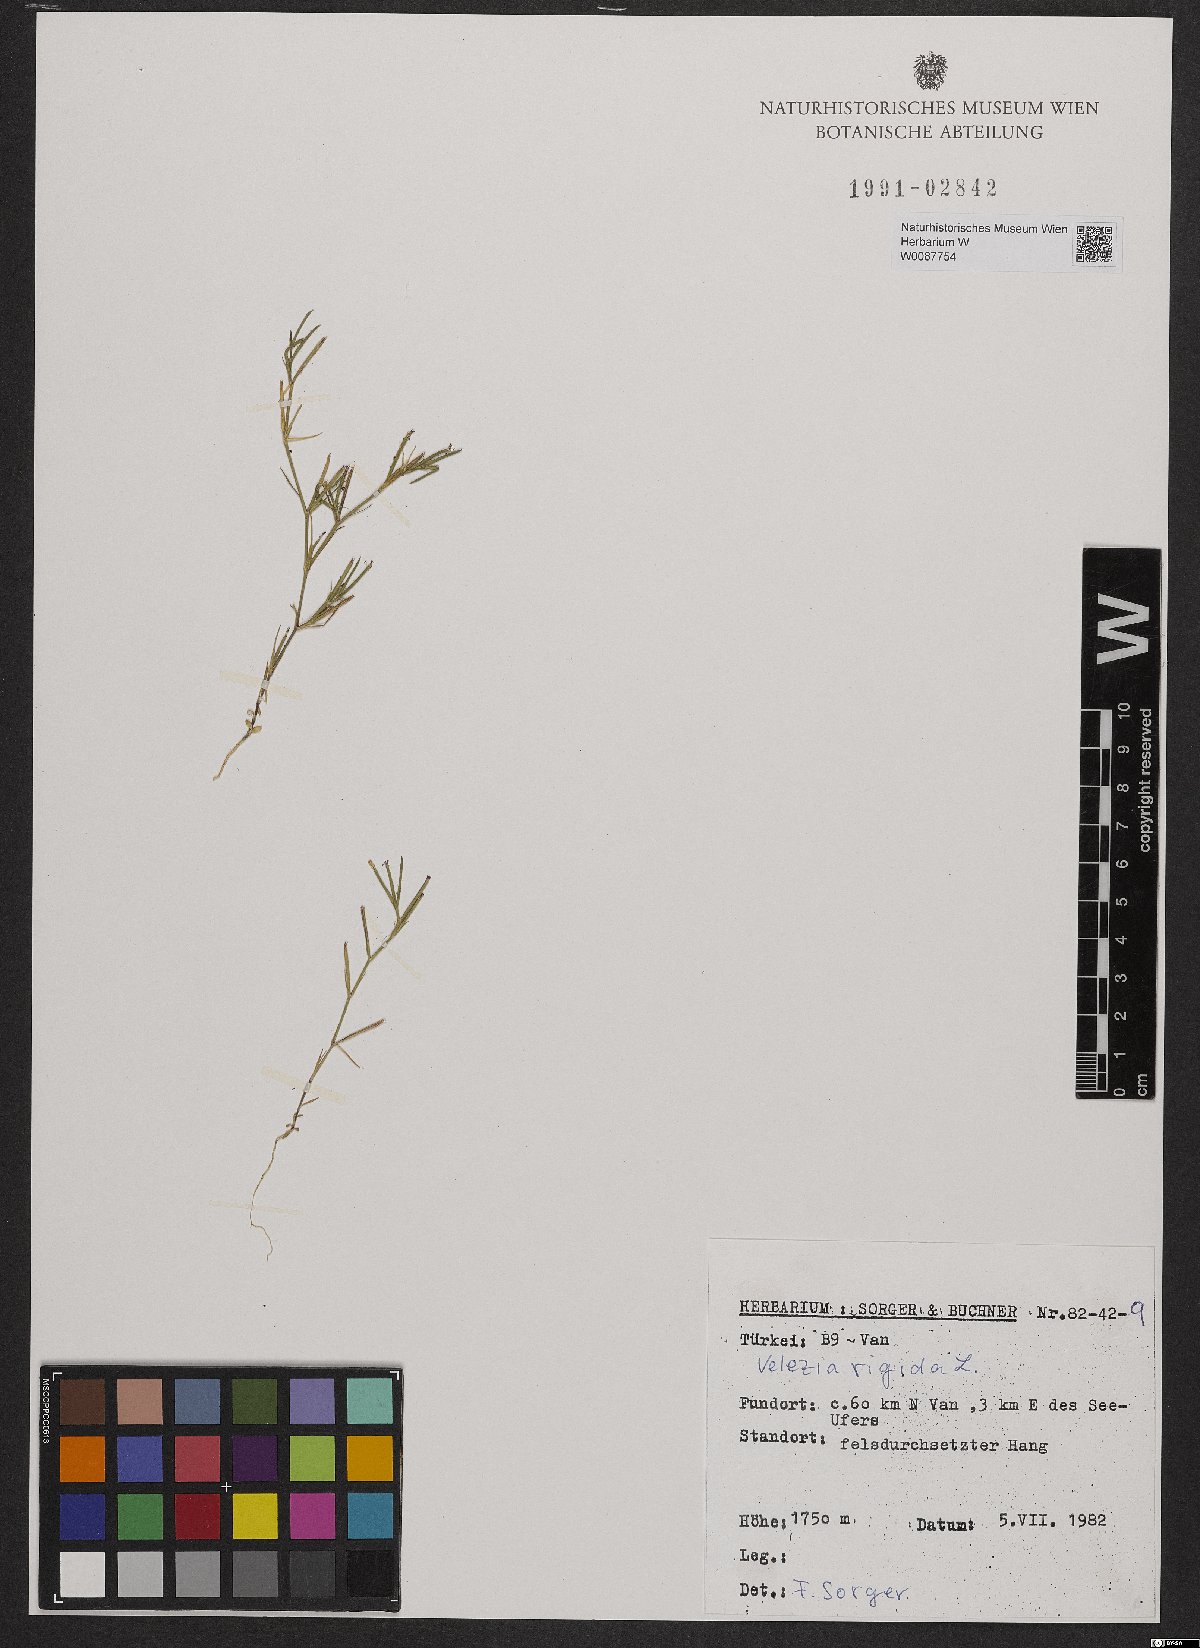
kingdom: Plantae
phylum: Tracheophyta
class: Magnoliopsida
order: Caryophyllales
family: Caryophyllaceae
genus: Dianthus
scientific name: Dianthus nudiflorus
